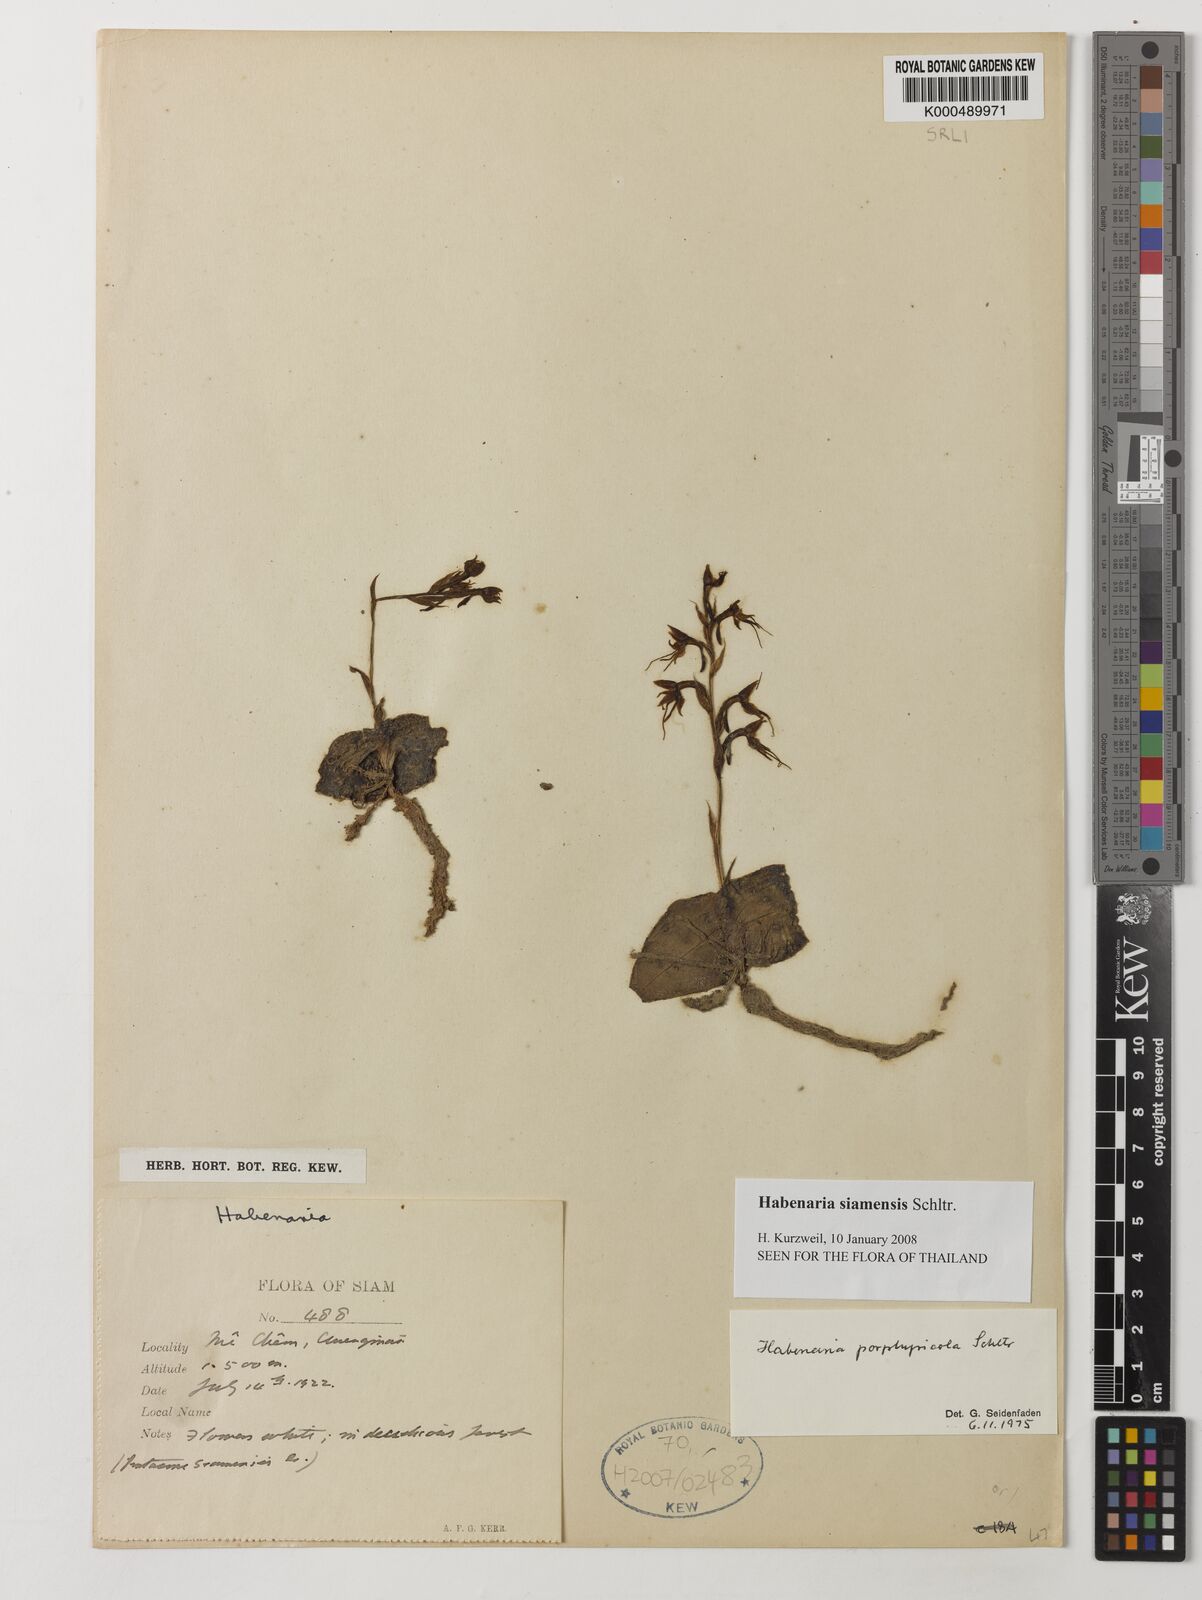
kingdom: Plantae
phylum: Tracheophyta
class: Liliopsida
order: Asparagales
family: Orchidaceae
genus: Habenaria
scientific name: Habenaria siamensis
